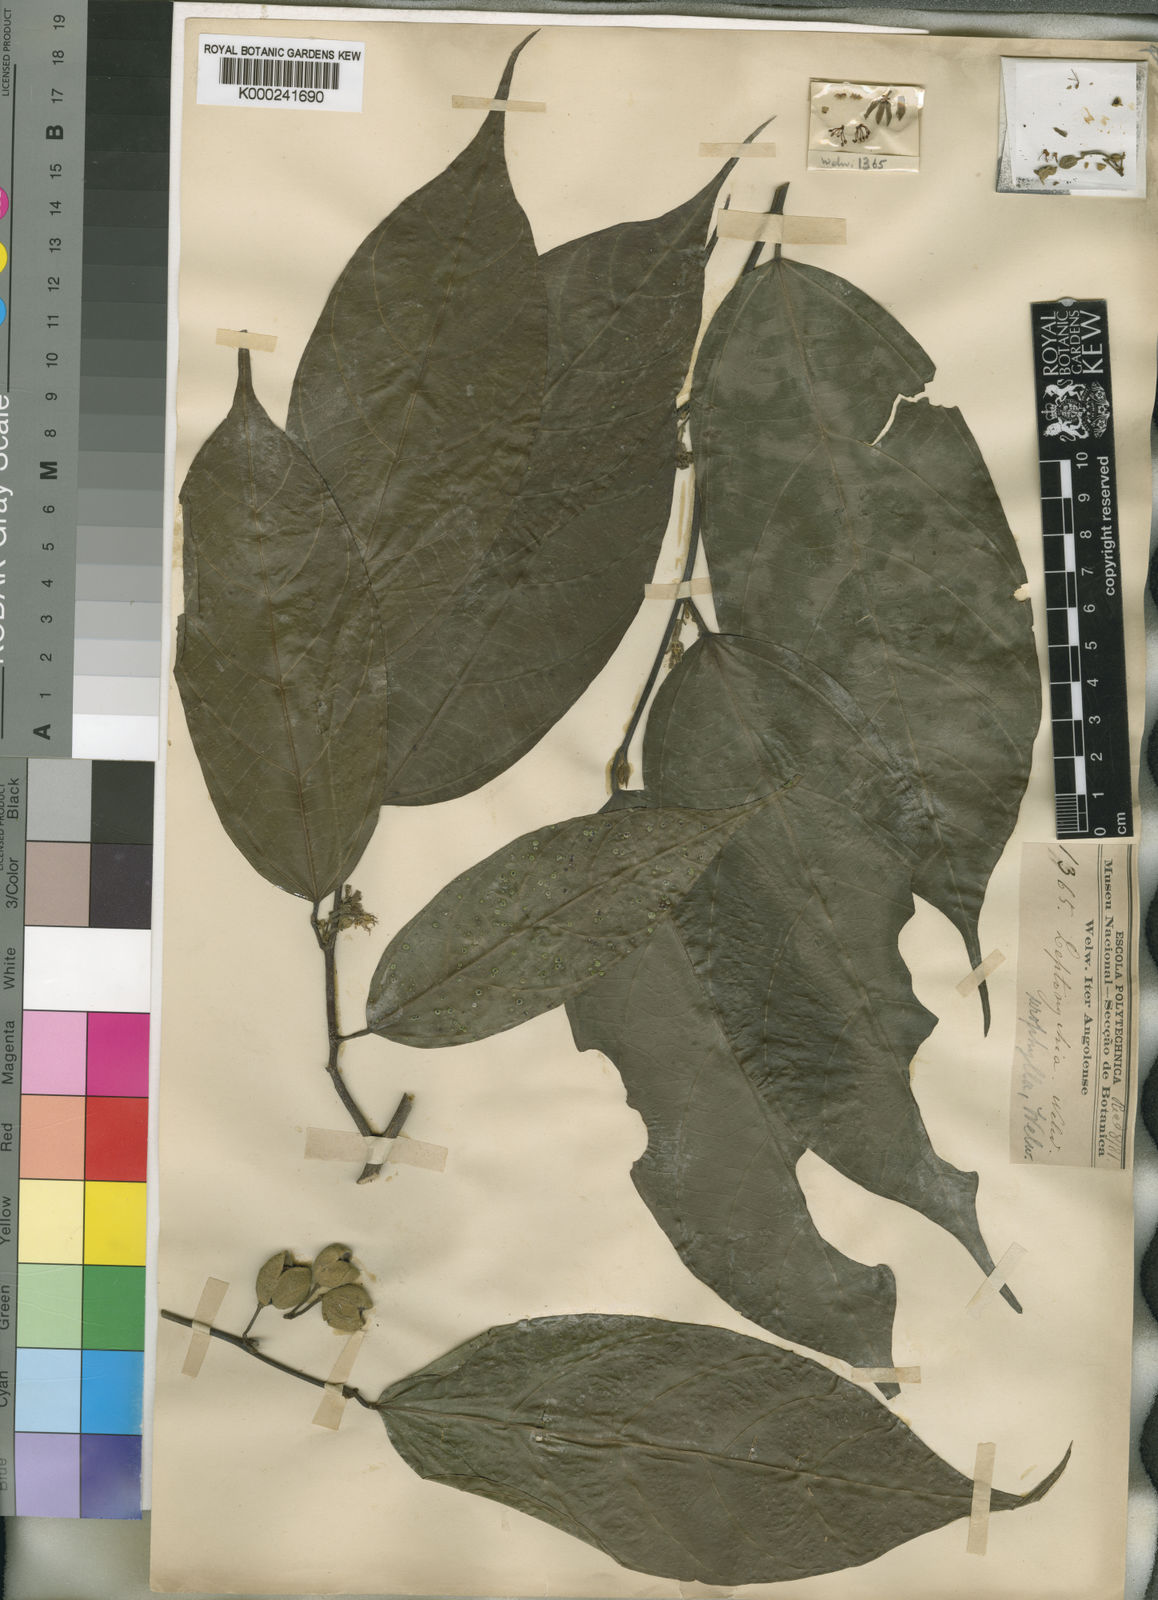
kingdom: Plantae
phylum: Tracheophyta
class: Magnoliopsida
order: Malvales
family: Malvaceae
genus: Leptonychia
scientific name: Leptonychia urophylla
